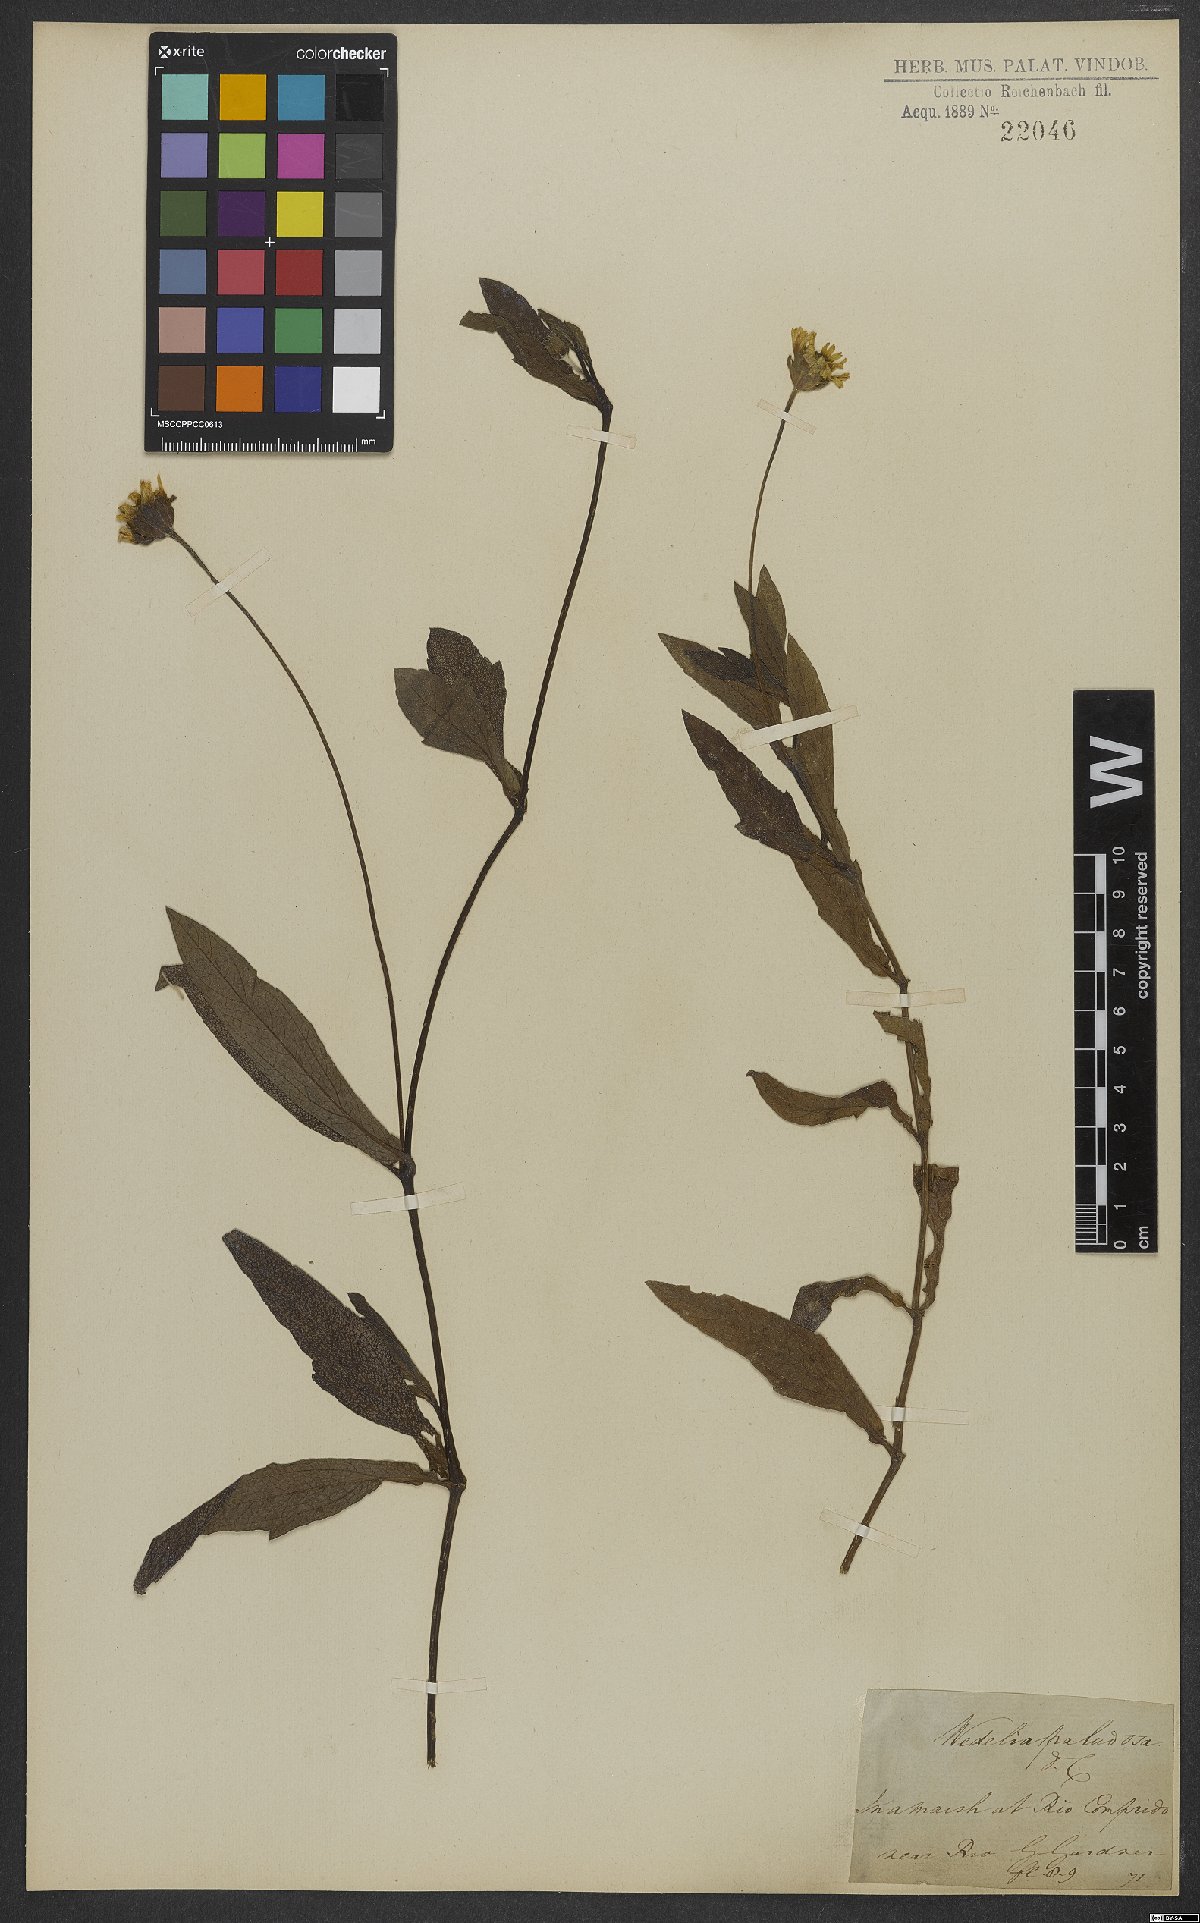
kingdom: Plantae
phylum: Tracheophyta
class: Magnoliopsida
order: Asterales
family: Asteraceae
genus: Sphagneticola
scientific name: Sphagneticola trilobata
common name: Bay biscayne creeping-oxeye
